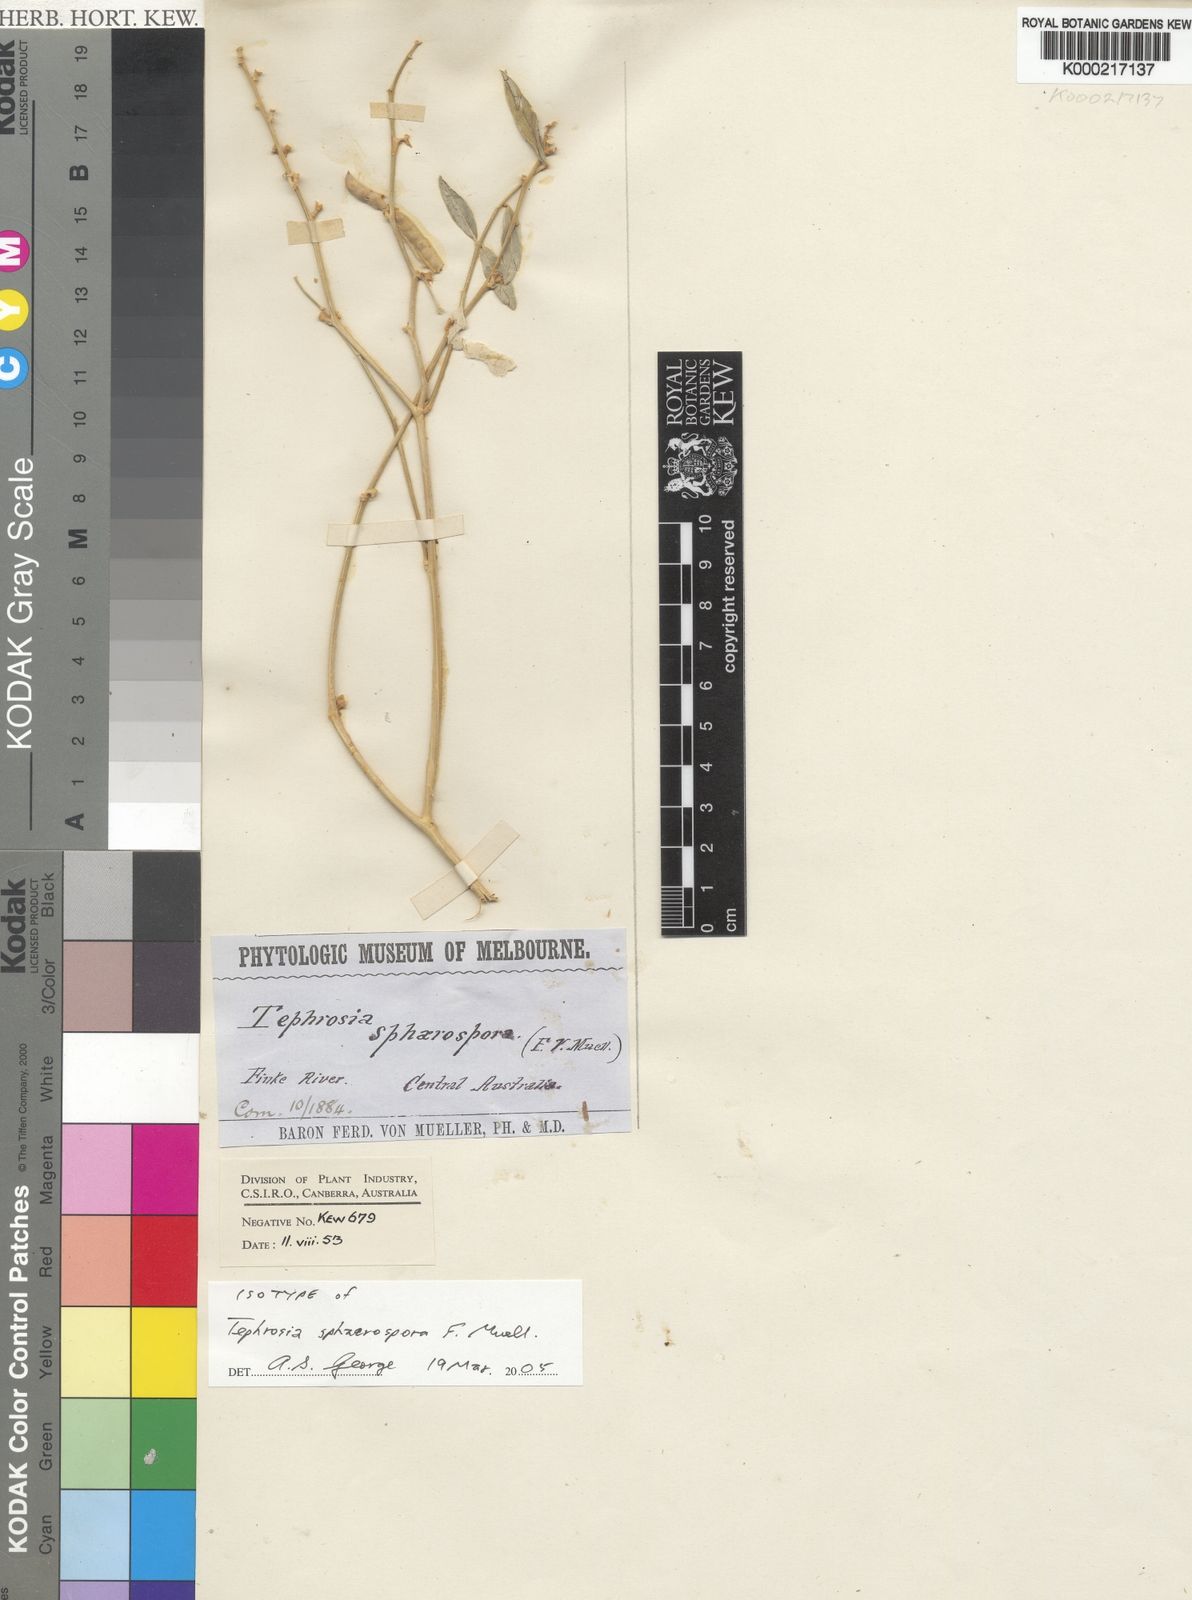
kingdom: Plantae
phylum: Tracheophyta
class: Magnoliopsida
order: Fabales
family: Fabaceae
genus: Tephrosia
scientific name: Tephrosia sphaerospora
